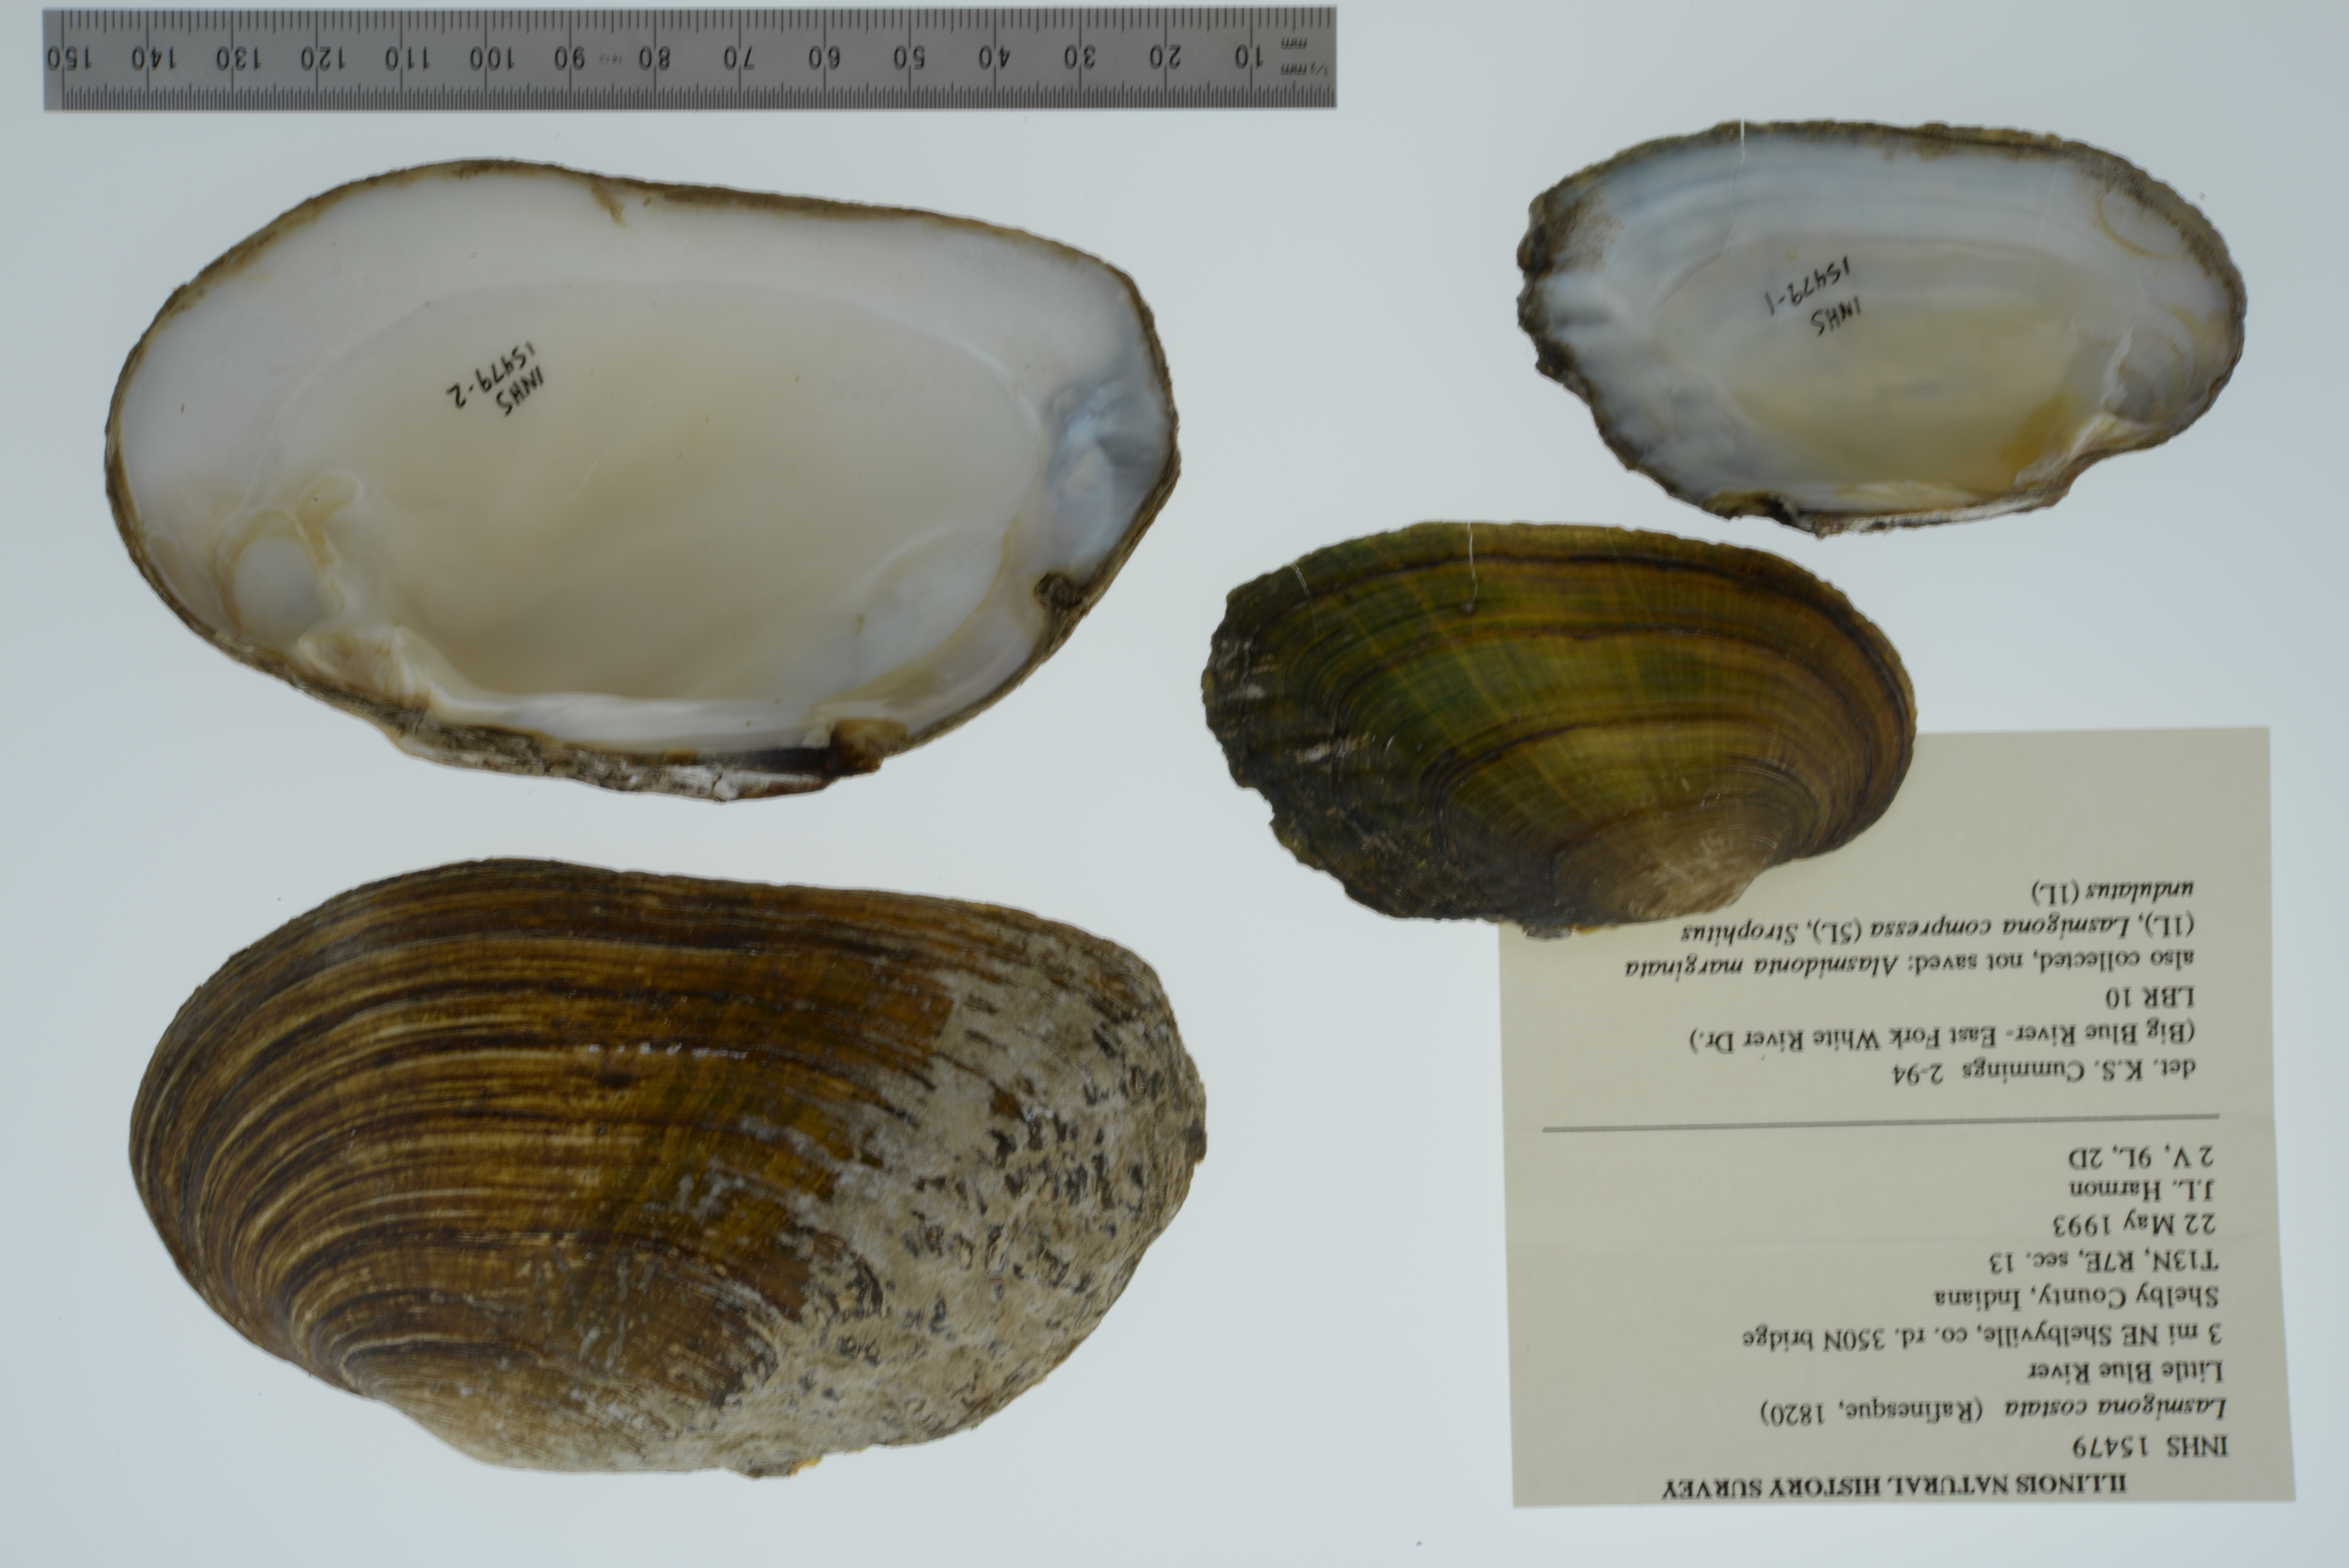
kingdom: Animalia
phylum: Mollusca
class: Bivalvia
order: Unionida
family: Unionidae
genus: Lasmigona
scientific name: Lasmigona costata
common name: Flutedshell
